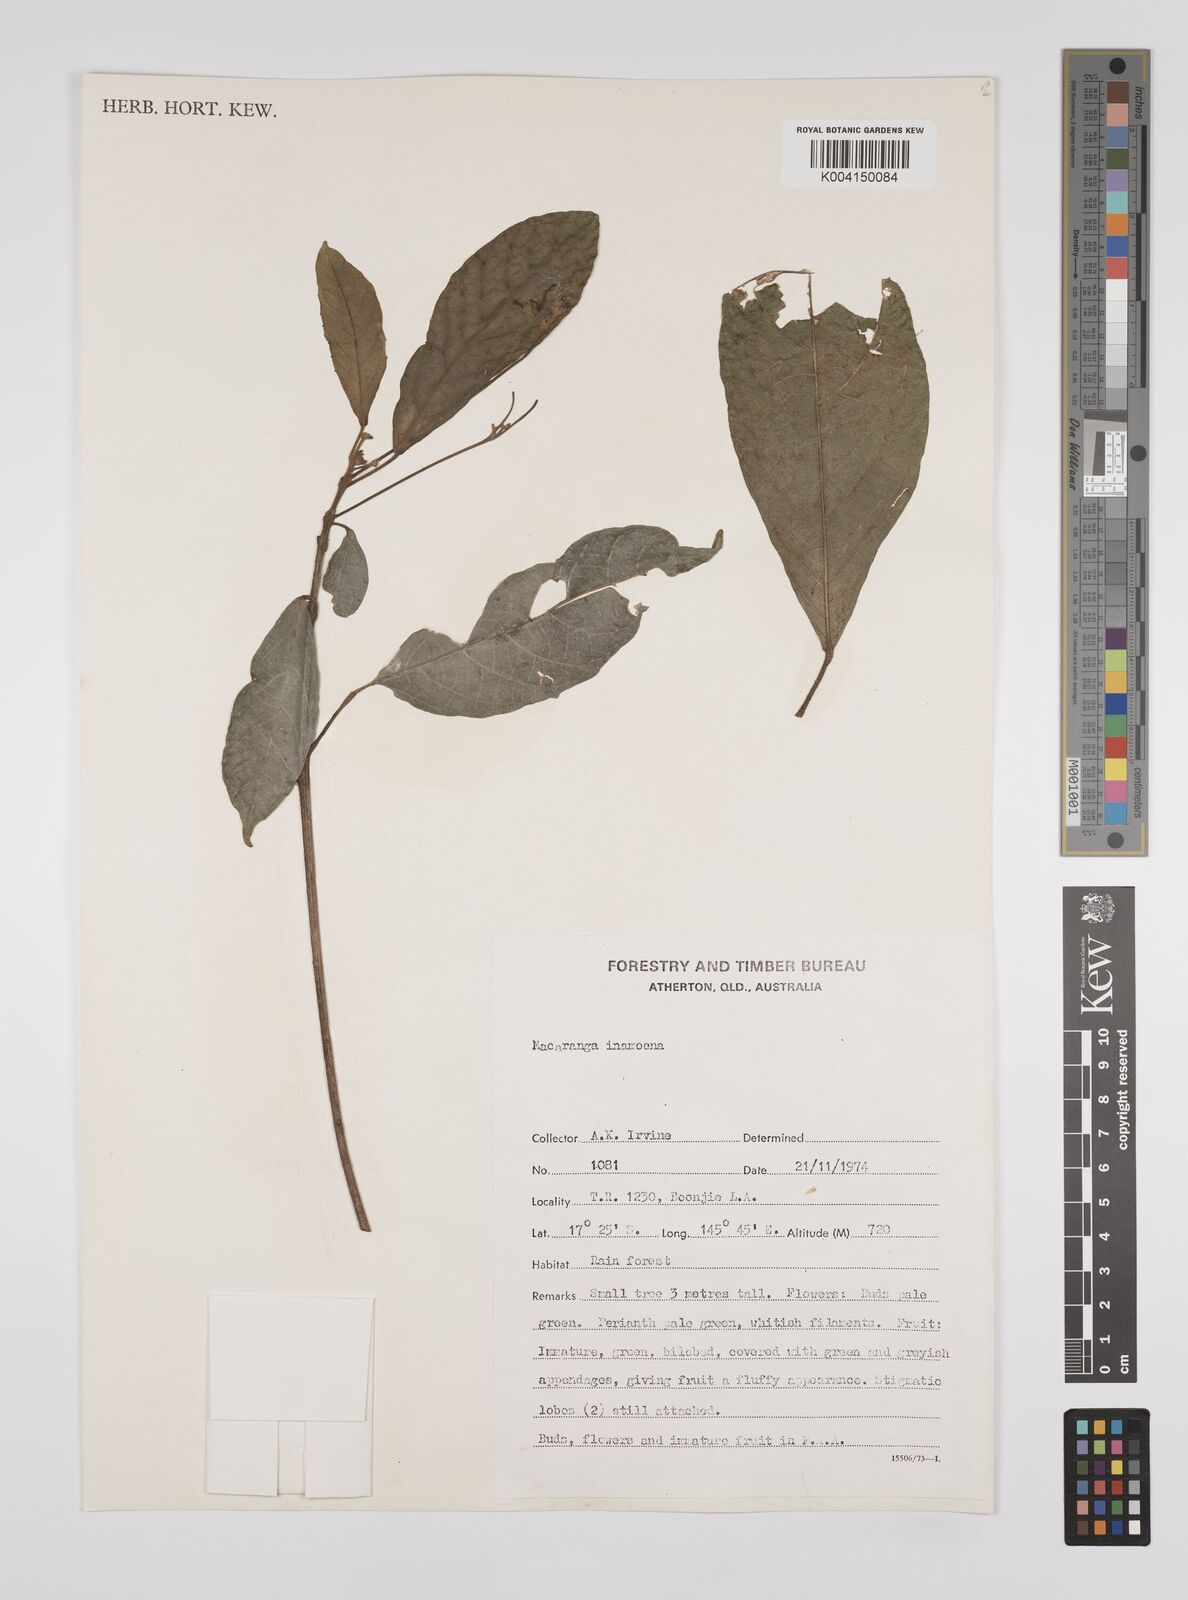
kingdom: Plantae
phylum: Tracheophyta
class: Magnoliopsida
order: Malpighiales
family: Euphorbiaceae
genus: Macaranga
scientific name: Macaranga inamoena
